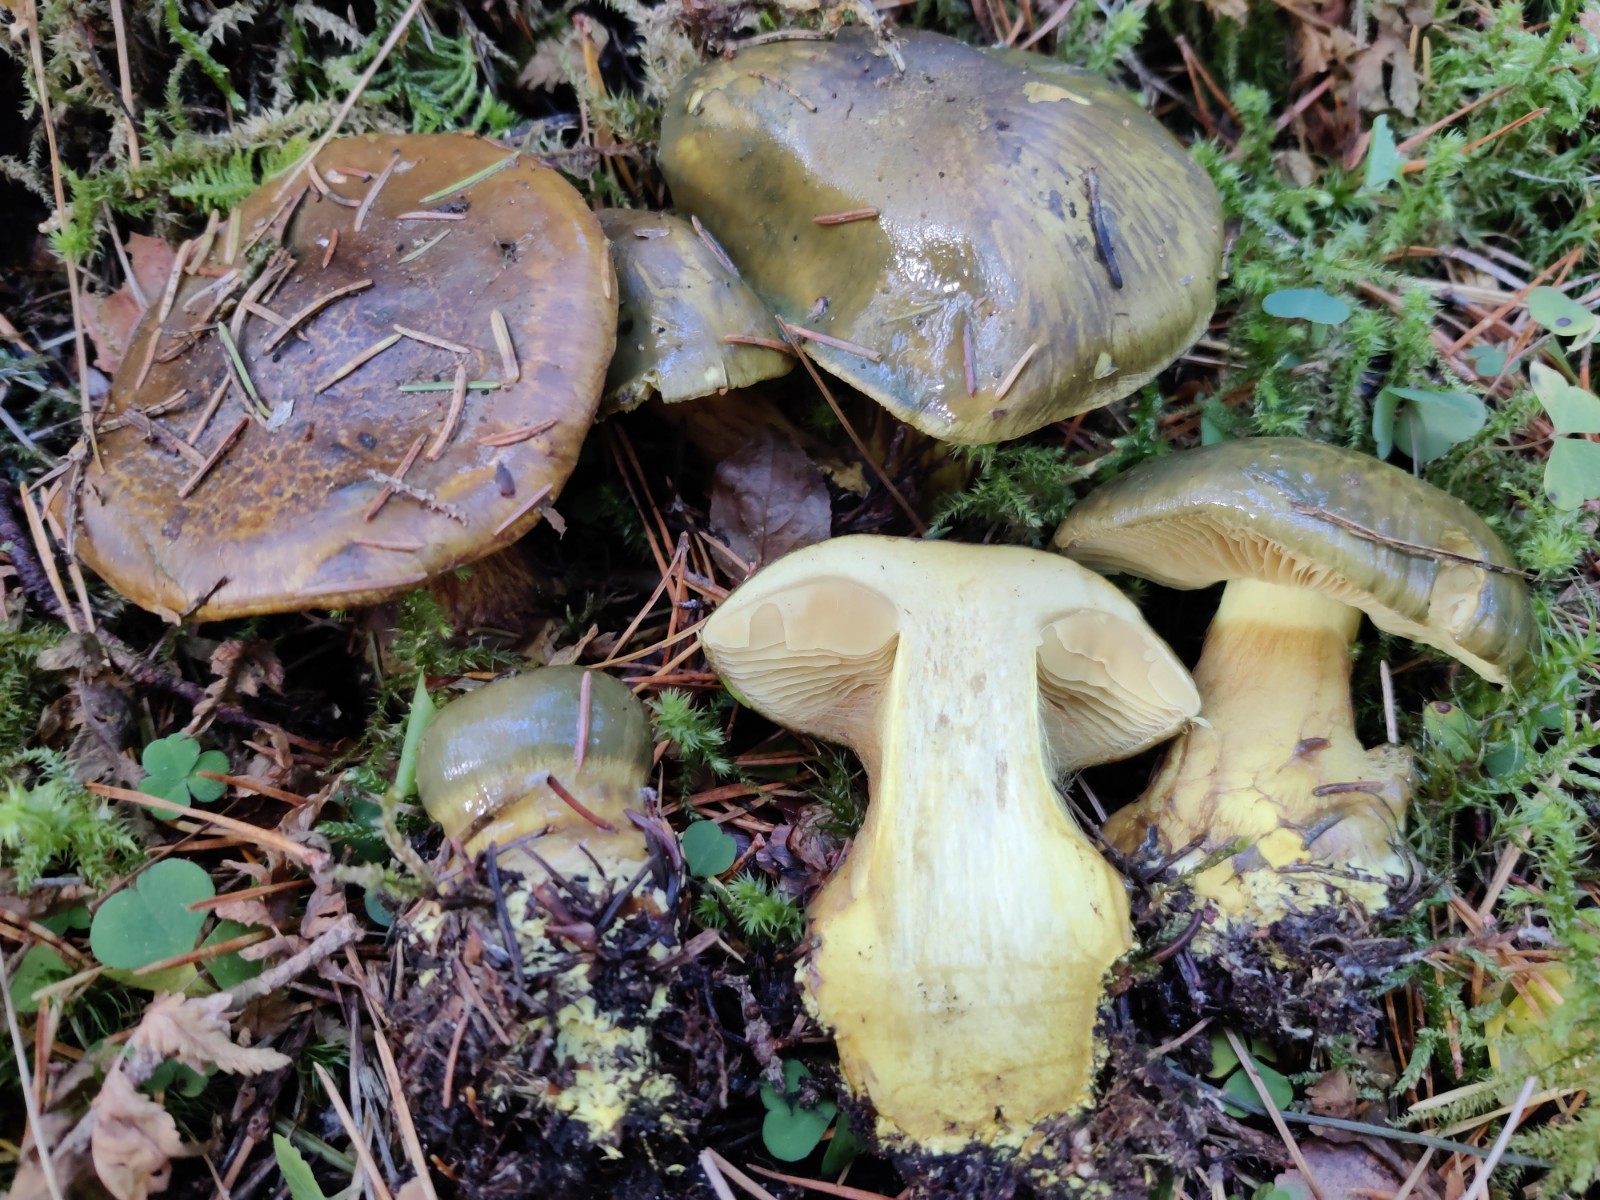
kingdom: Fungi
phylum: Basidiomycota
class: Agaricomycetes
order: Agaricales
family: Cortinariaceae
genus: Calonarius
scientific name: Calonarius atrovirens
